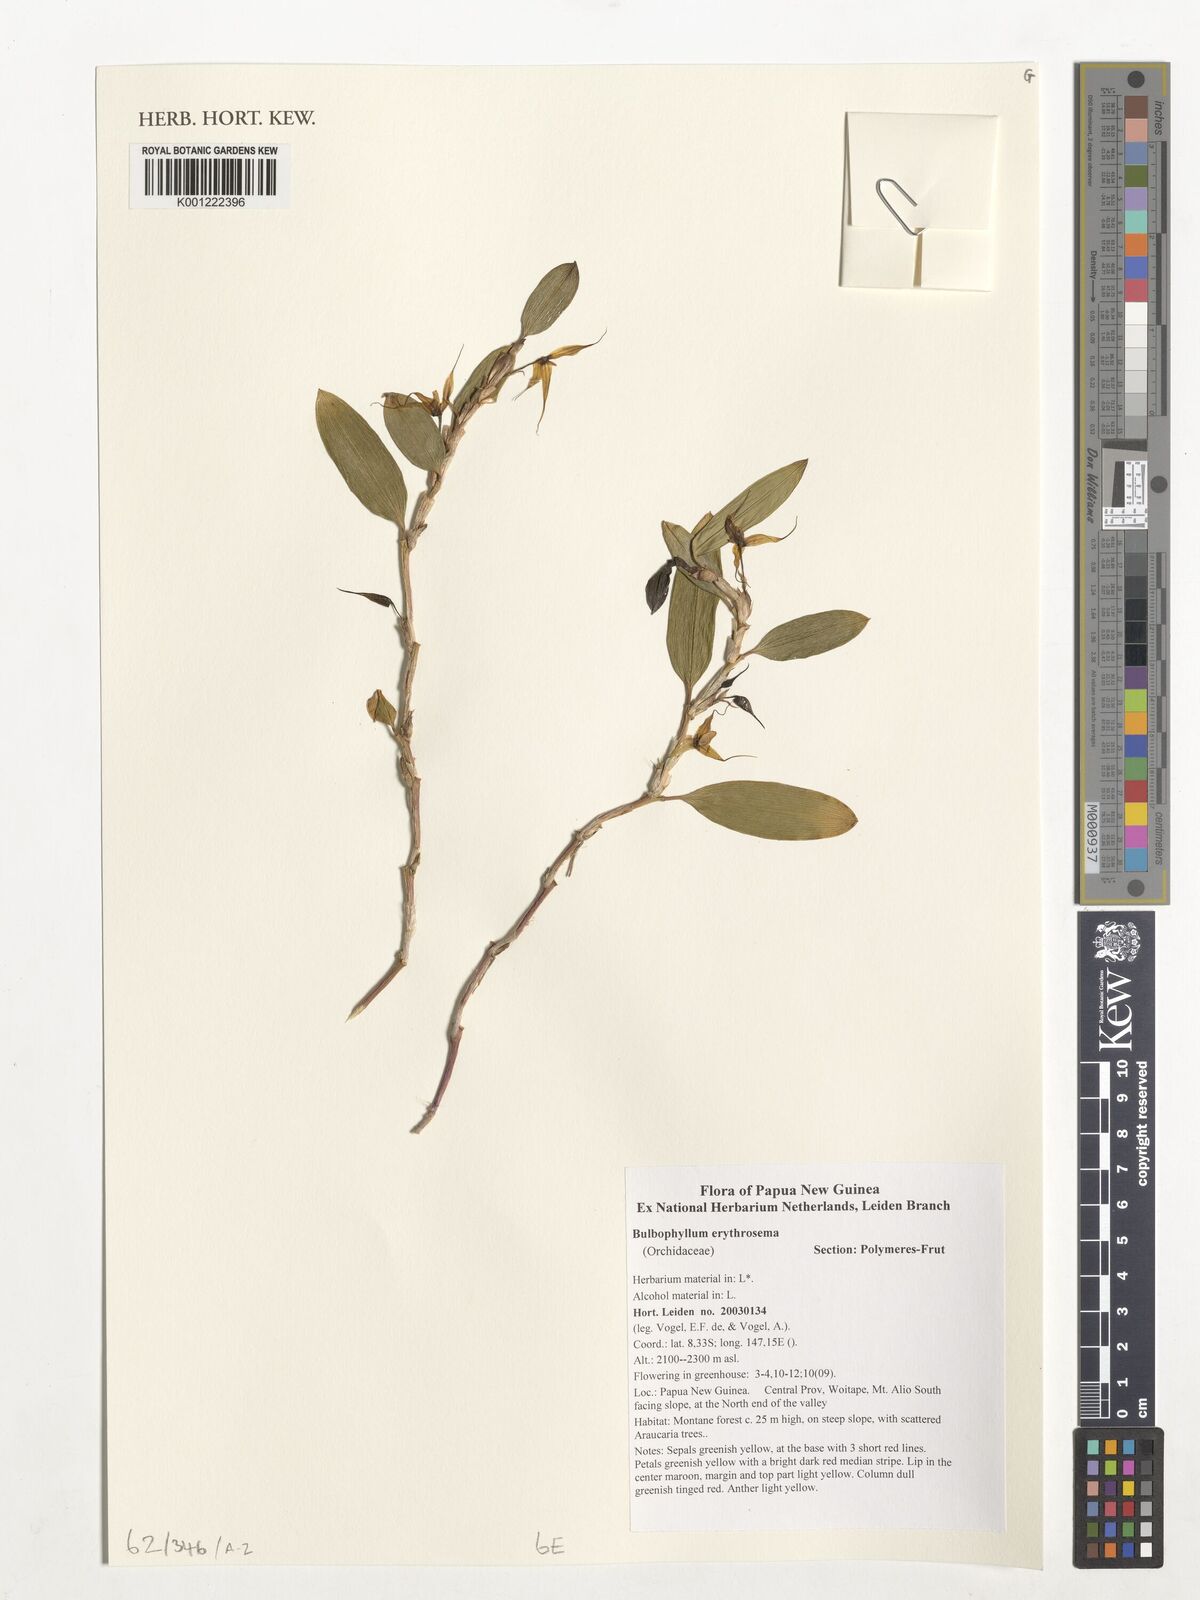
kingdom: Plantae
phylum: Tracheophyta
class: Liliopsida
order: Asparagales
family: Orchidaceae
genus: Bulbophyllum
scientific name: Bulbophyllum erythrosema
